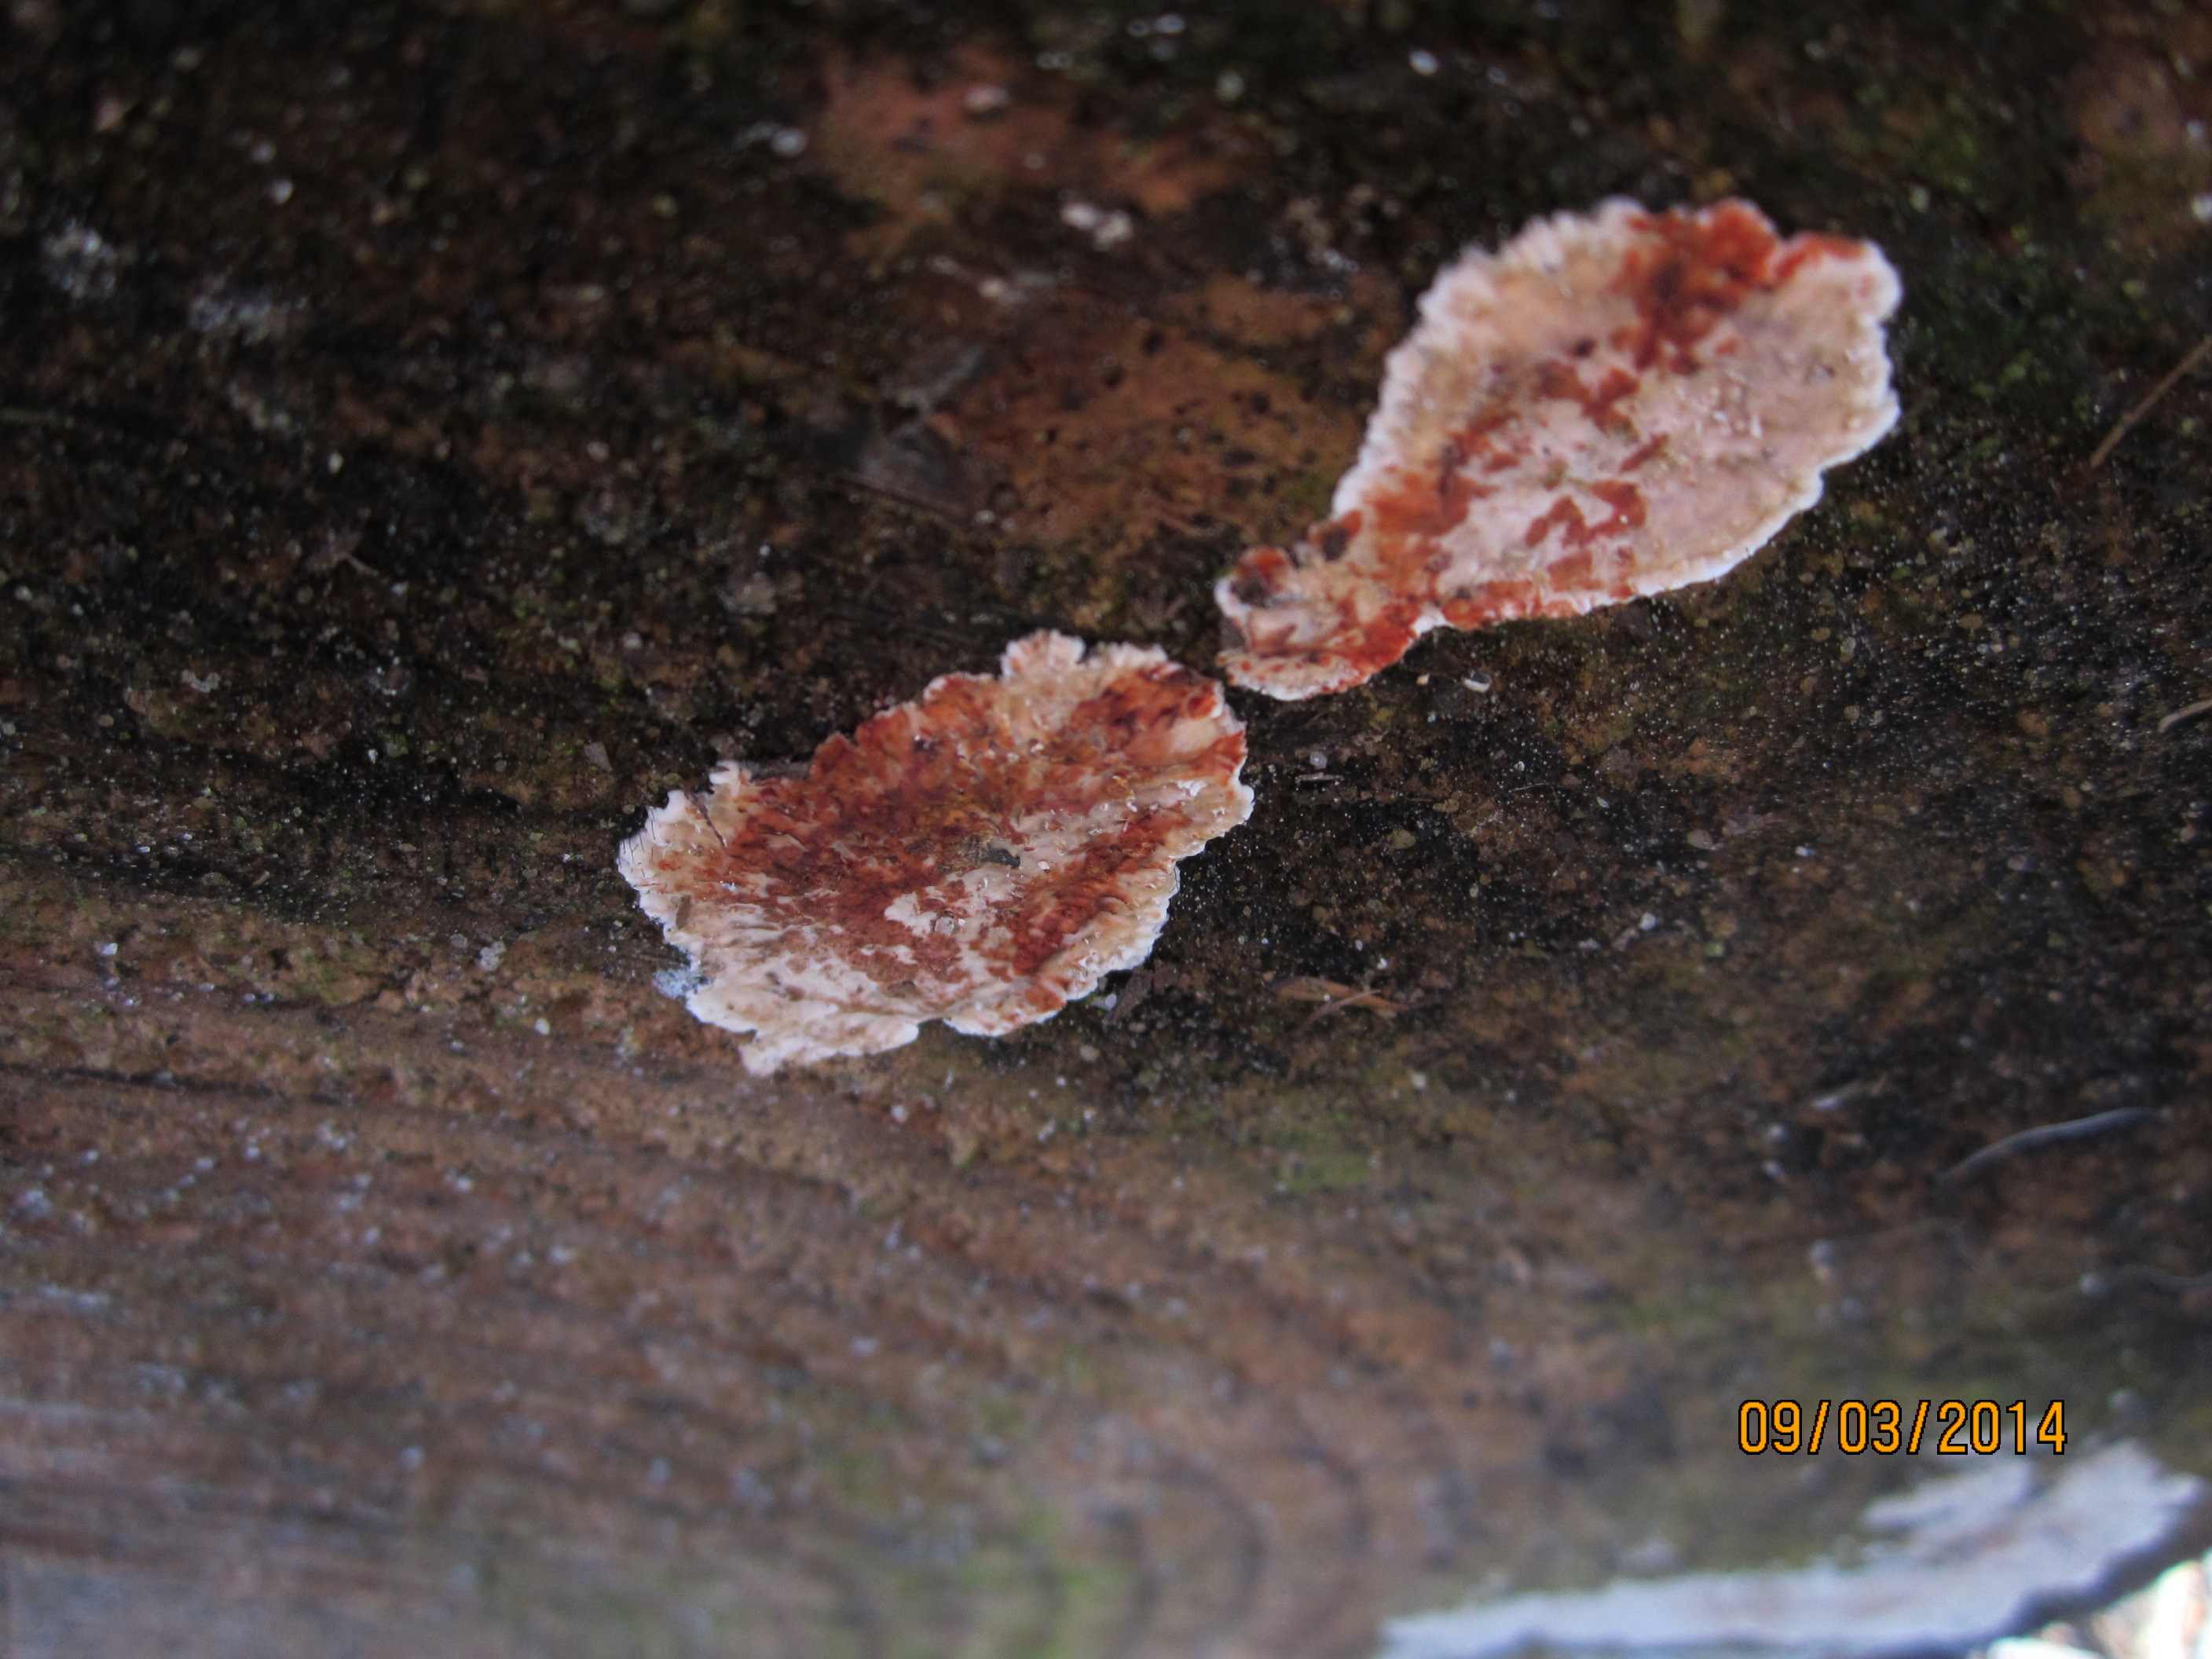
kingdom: Fungi
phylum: Basidiomycota
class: Agaricomycetes
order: Russulales
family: Stereaceae
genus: Stereum
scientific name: Stereum sanguinolentum
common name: blødende lædersvamp
